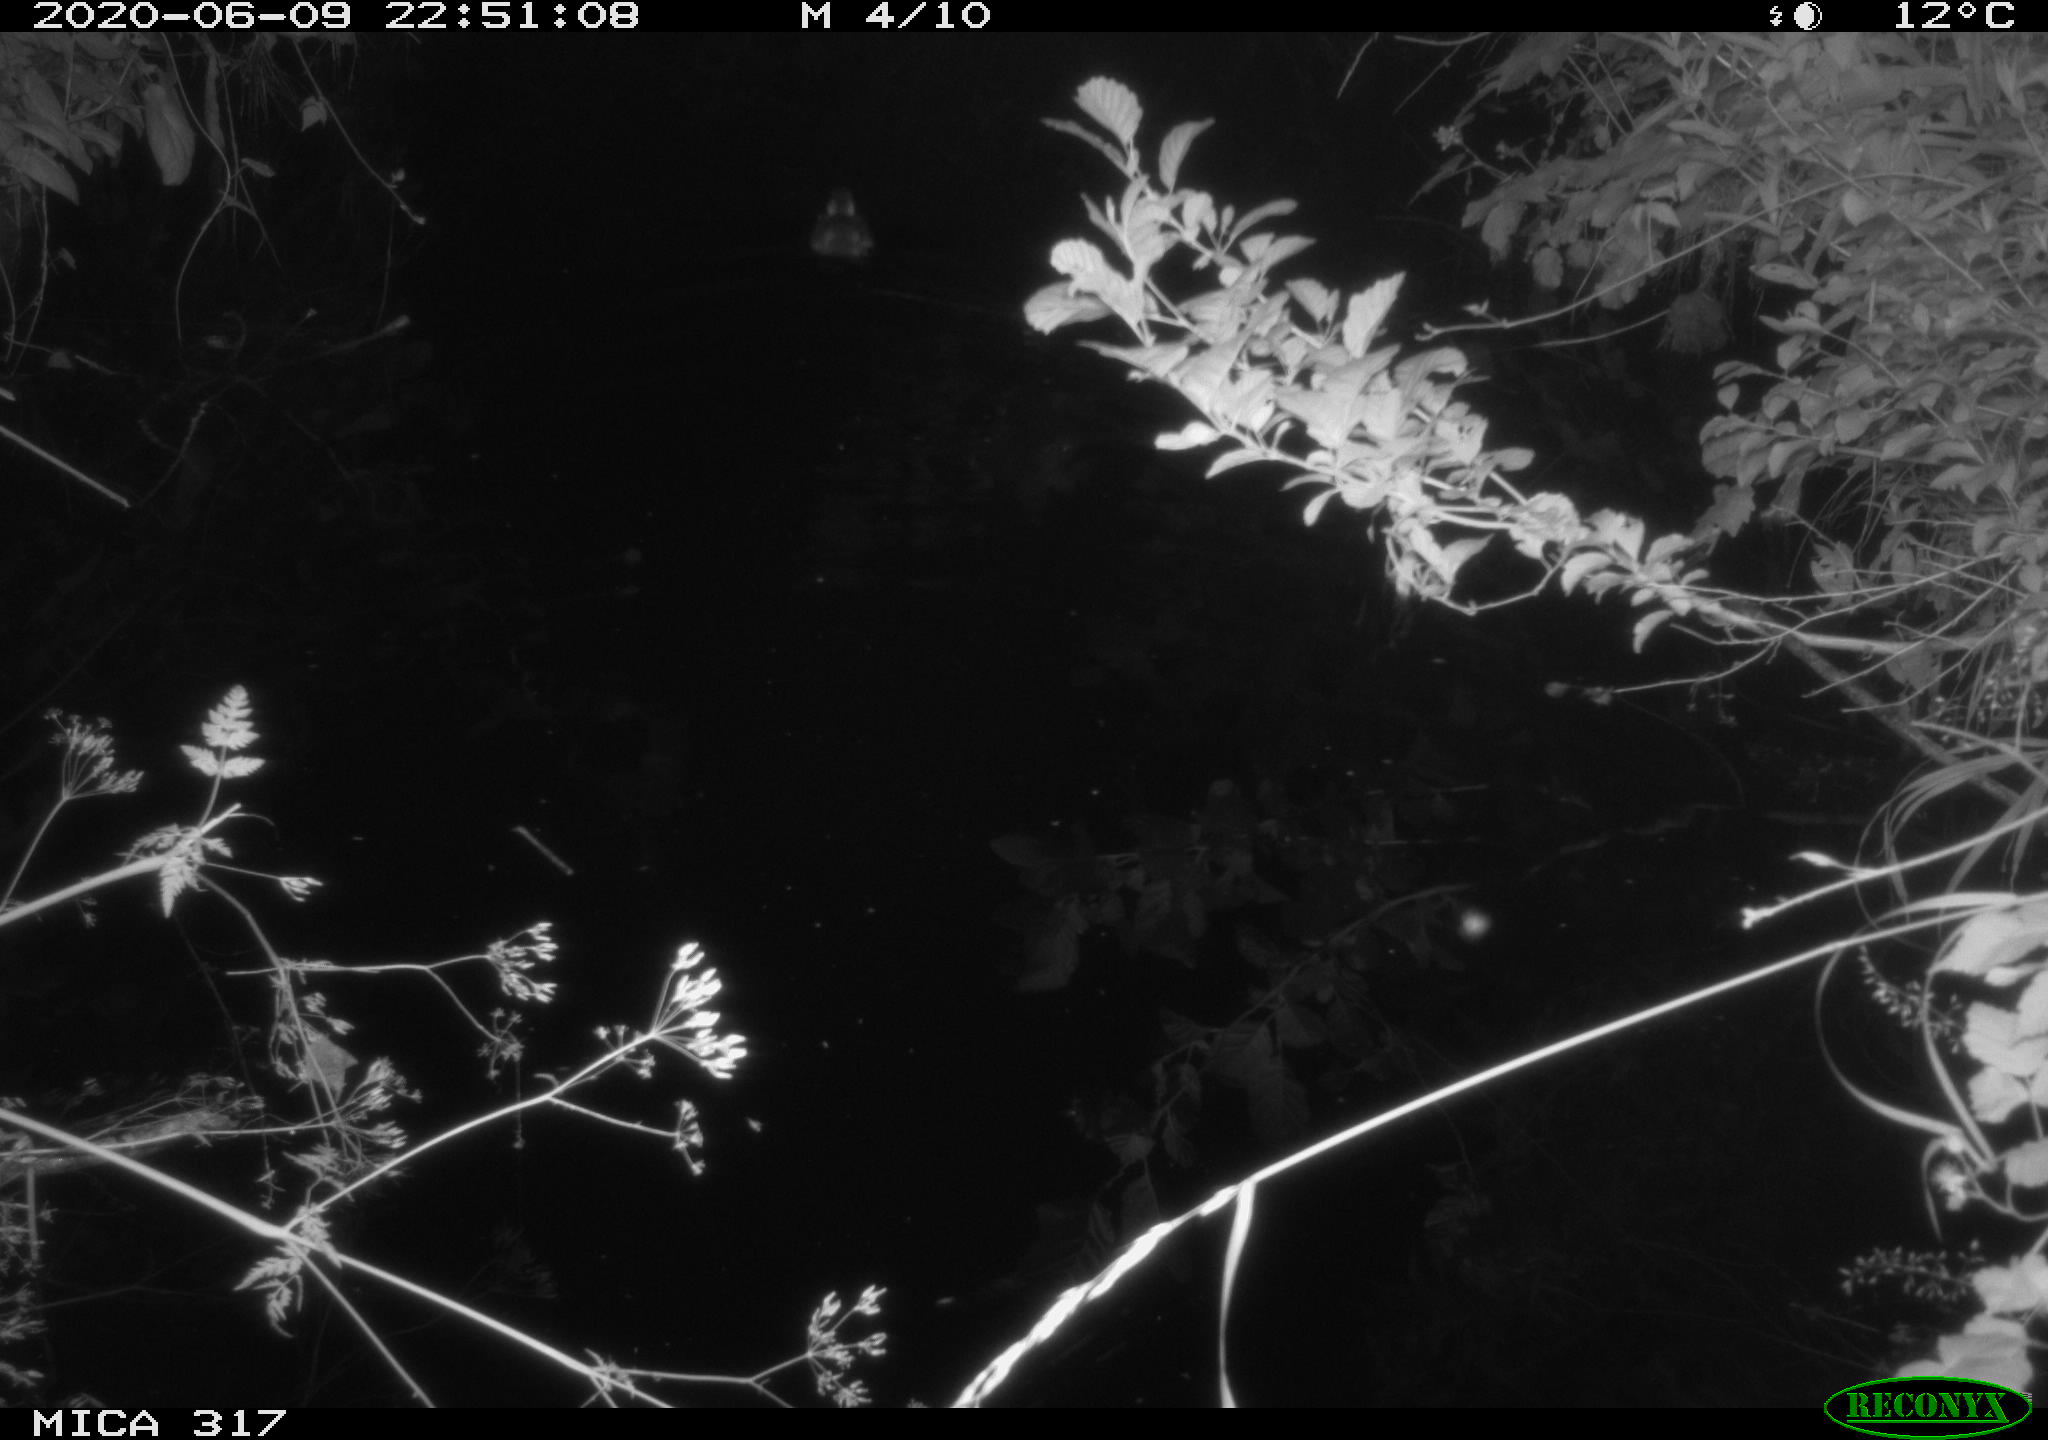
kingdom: Animalia
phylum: Chordata
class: Aves
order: Anseriformes
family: Anatidae
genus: Anas
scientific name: Anas platyrhynchos
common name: Mallard
